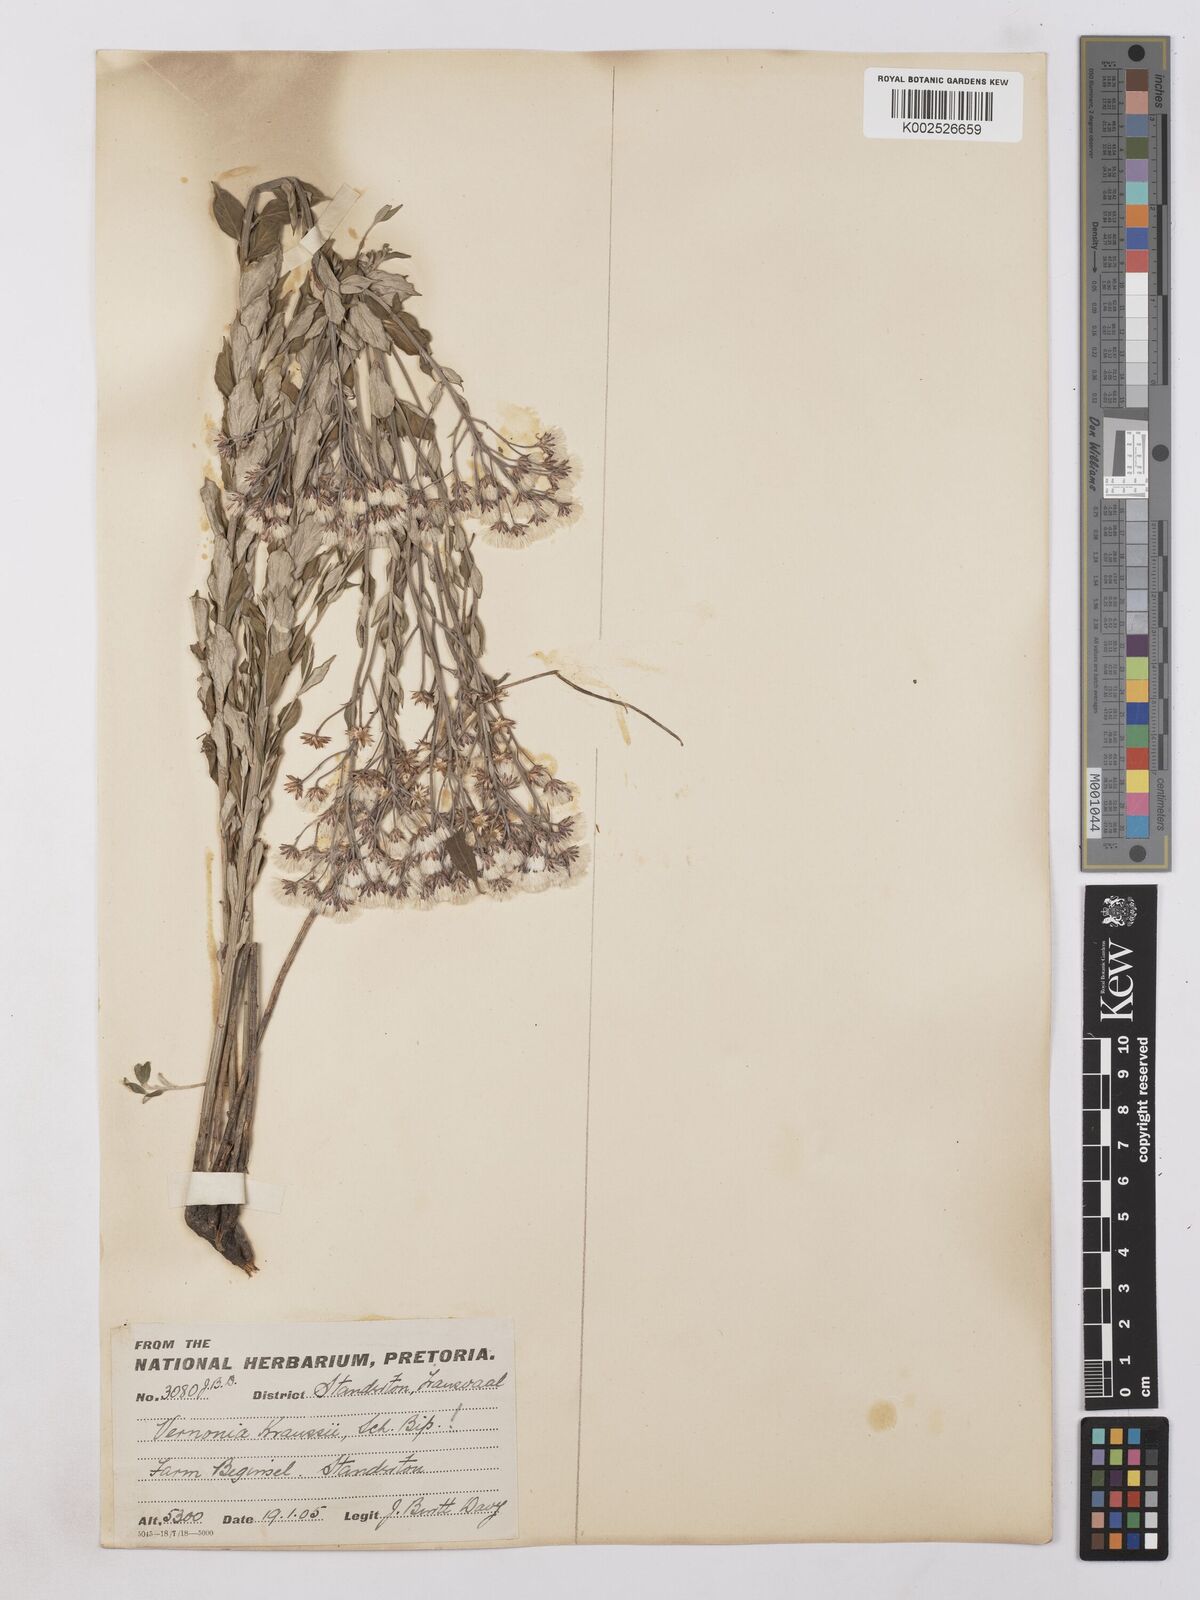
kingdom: Plantae
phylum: Tracheophyta
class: Magnoliopsida
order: Asterales
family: Asteraceae
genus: Hilliardiella
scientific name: Hilliardiella oligocephala
